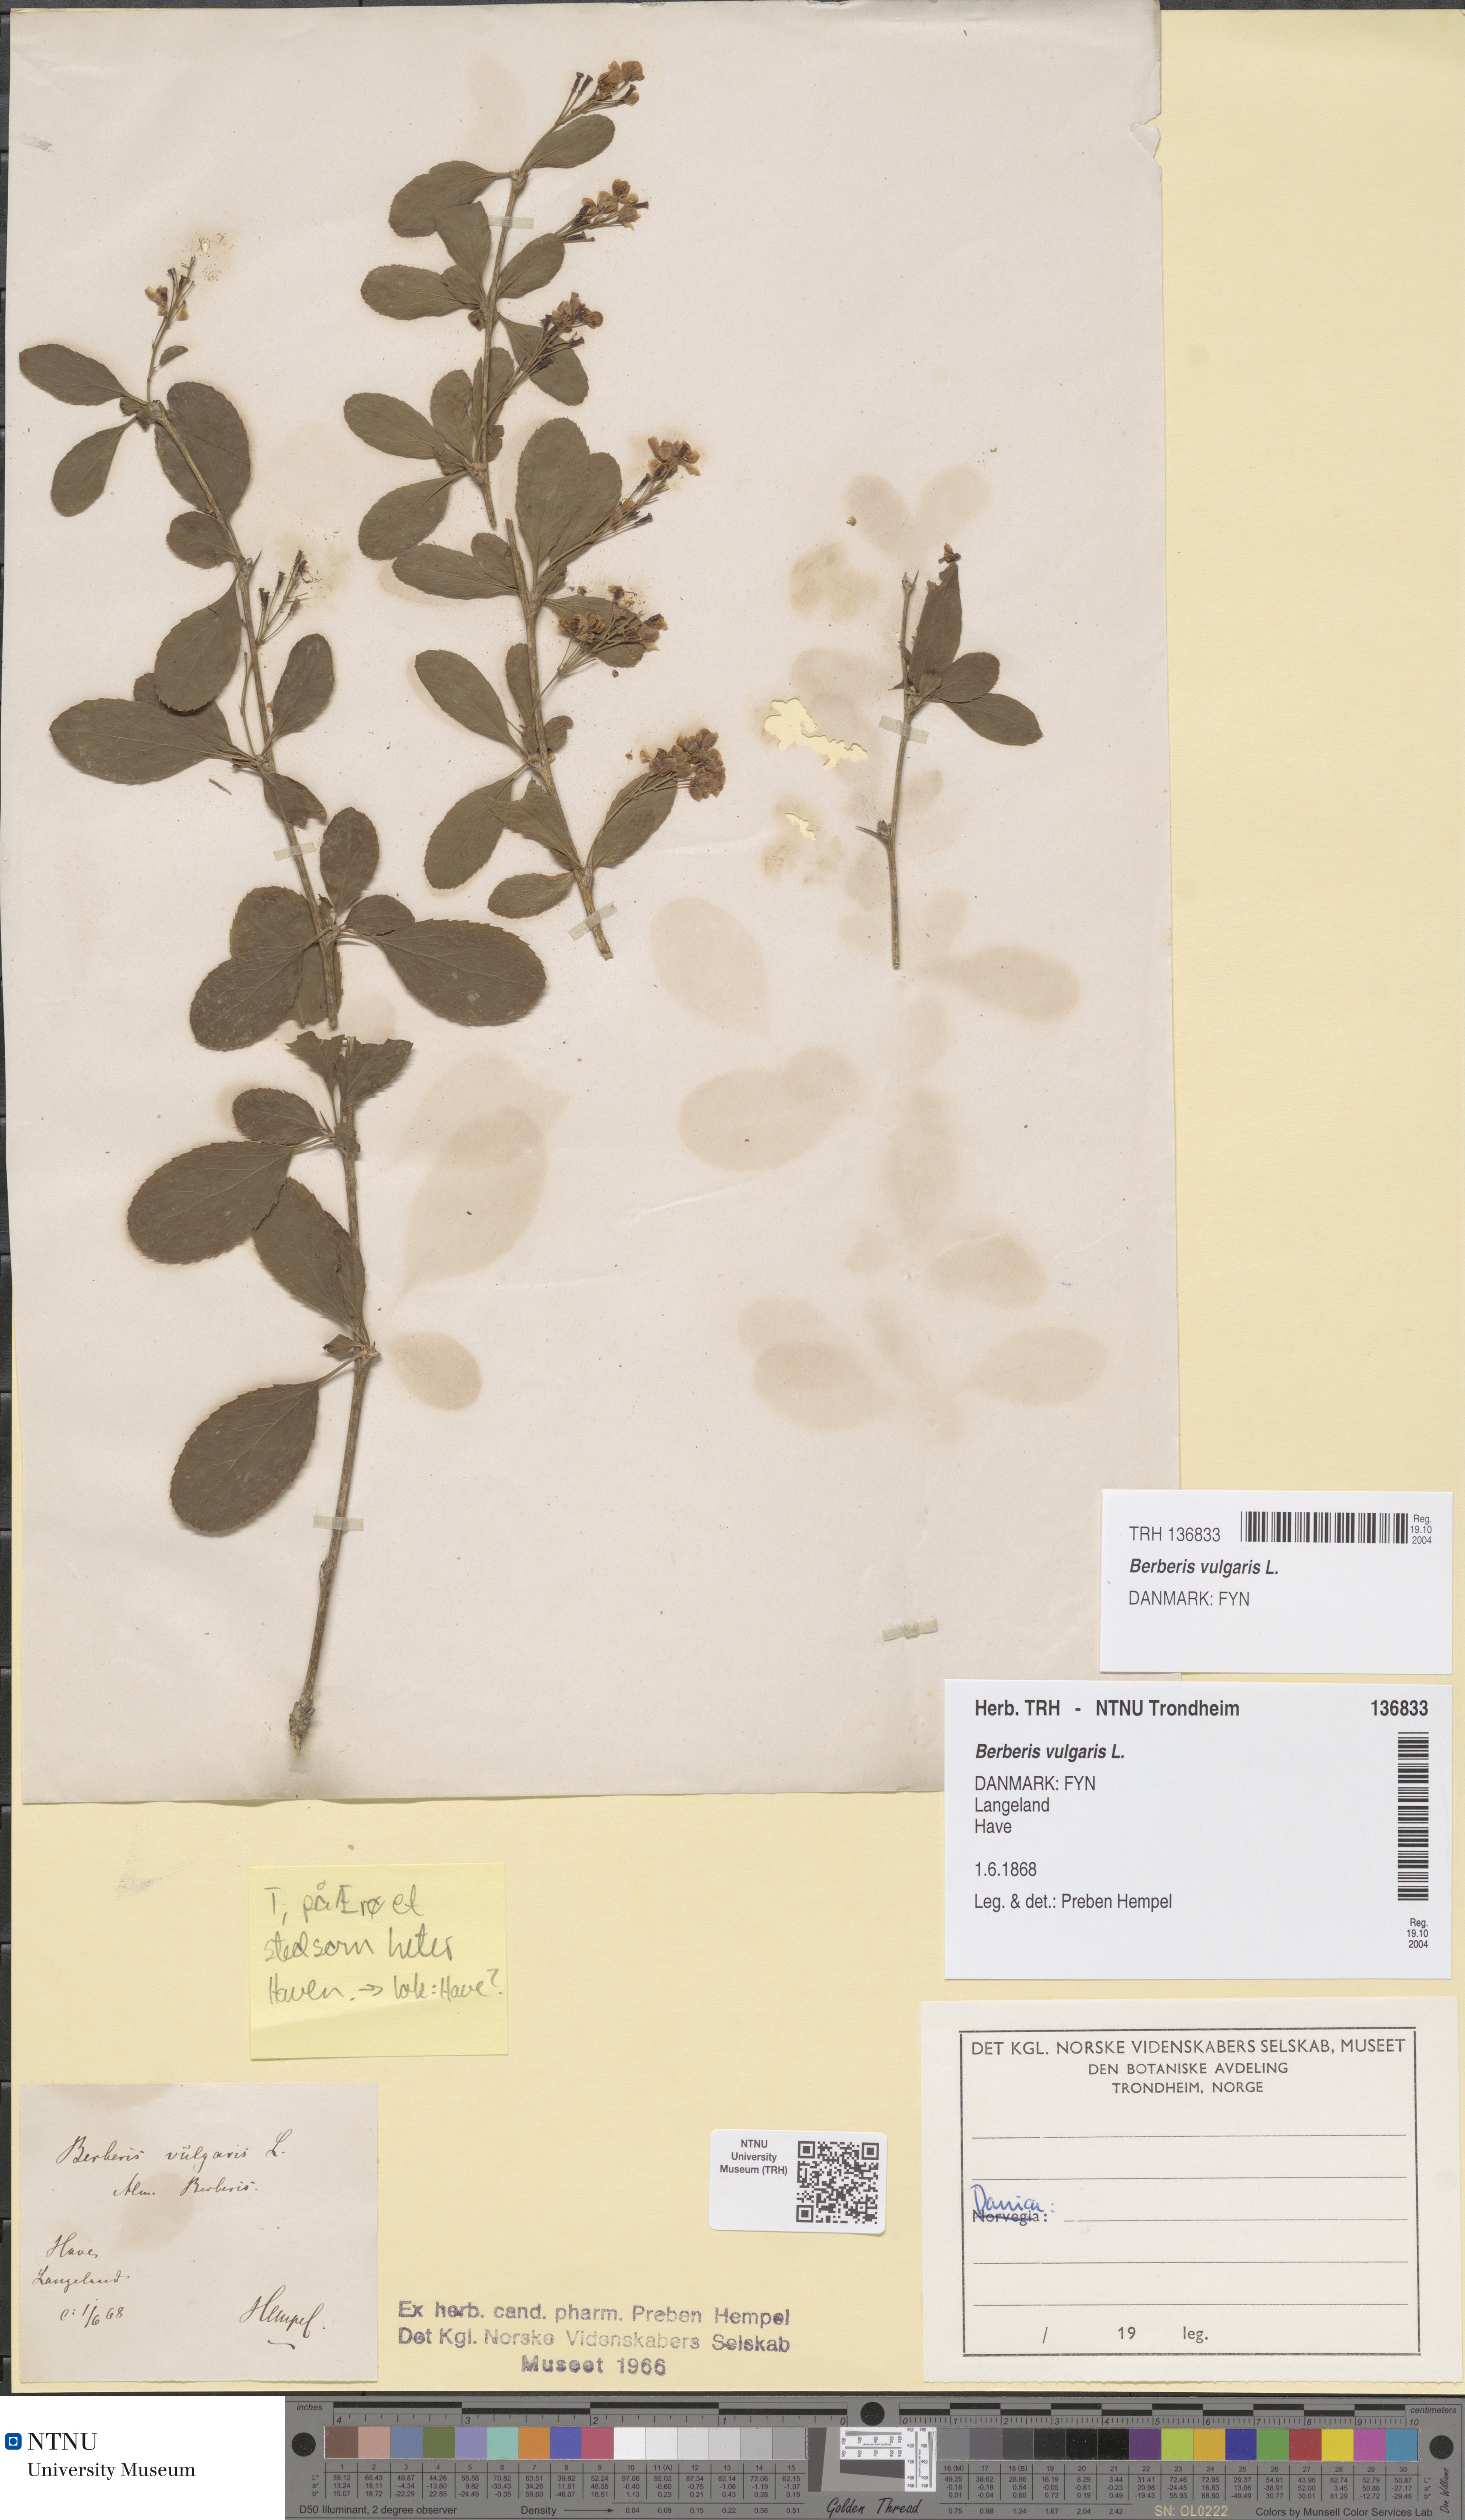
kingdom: Plantae
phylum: Tracheophyta
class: Magnoliopsida
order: Ranunculales
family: Berberidaceae
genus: Berberis
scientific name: Berberis vulgaris
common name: Barberry
